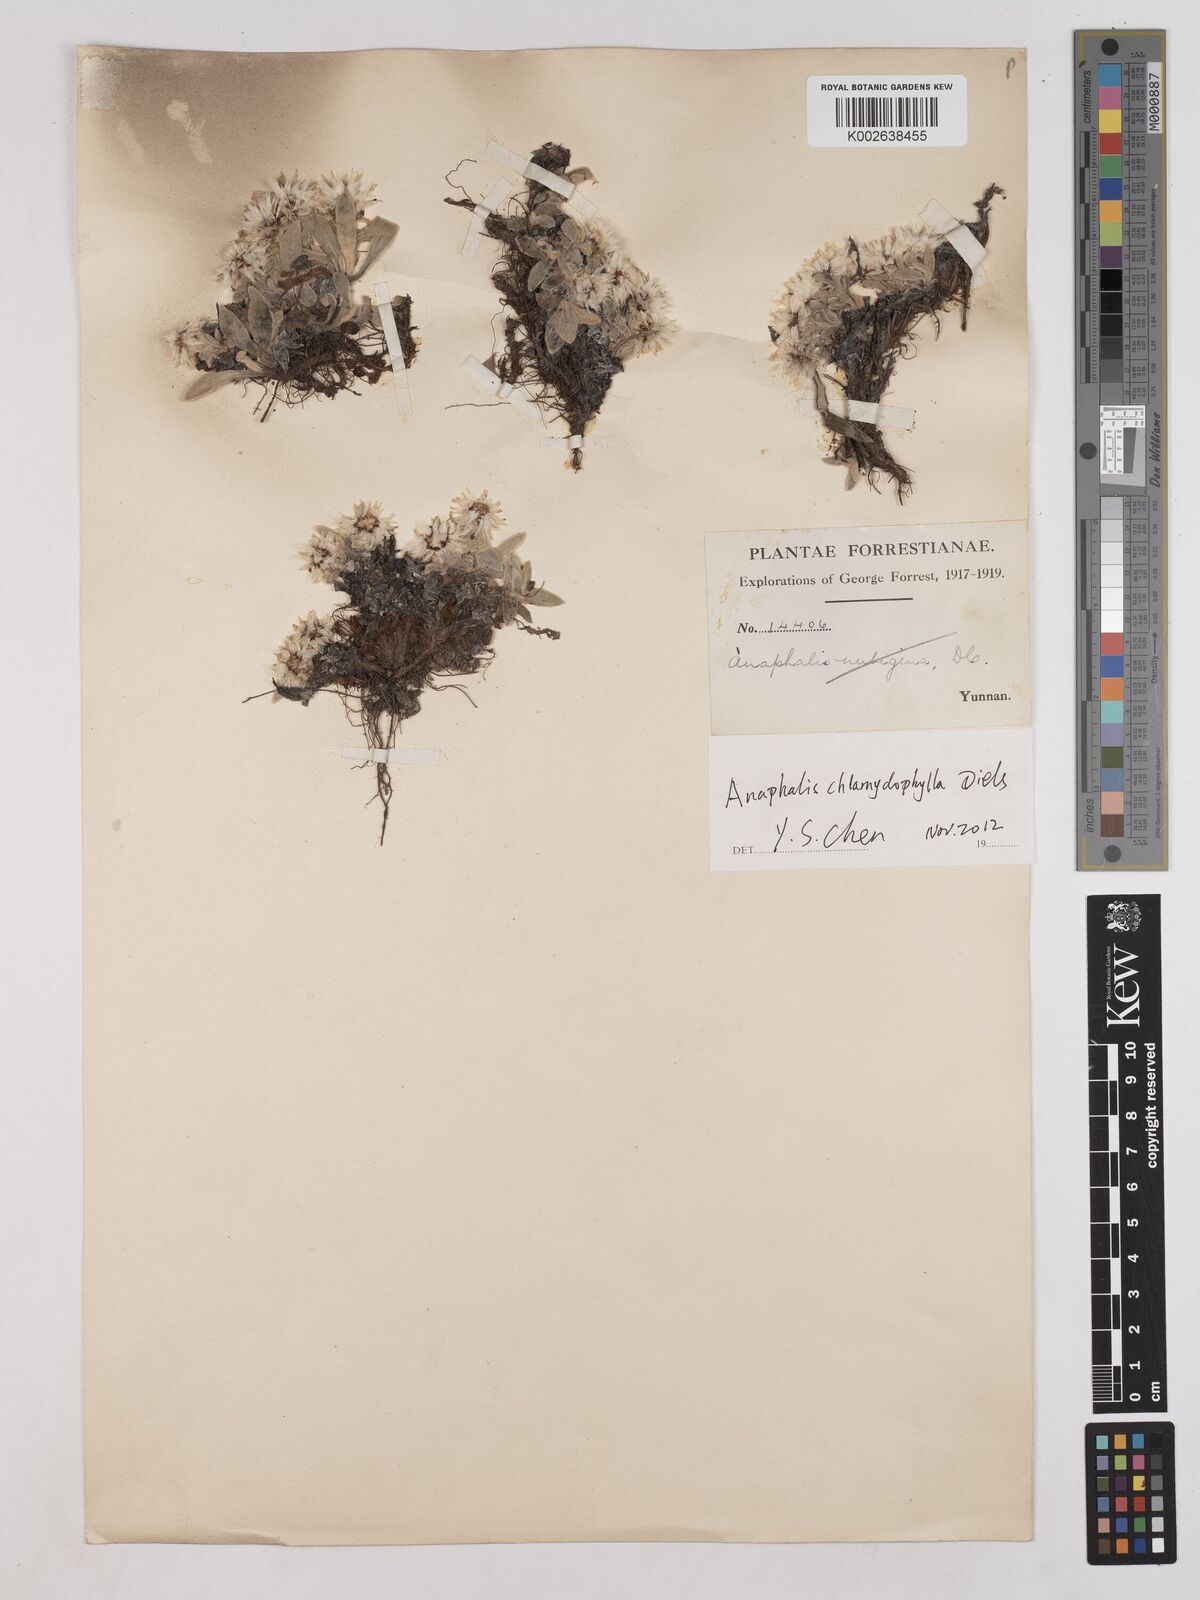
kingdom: Plantae
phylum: Tracheophyta
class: Magnoliopsida
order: Asterales
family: Asteraceae
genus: Anaphalis
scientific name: Anaphalis xylorhiza
